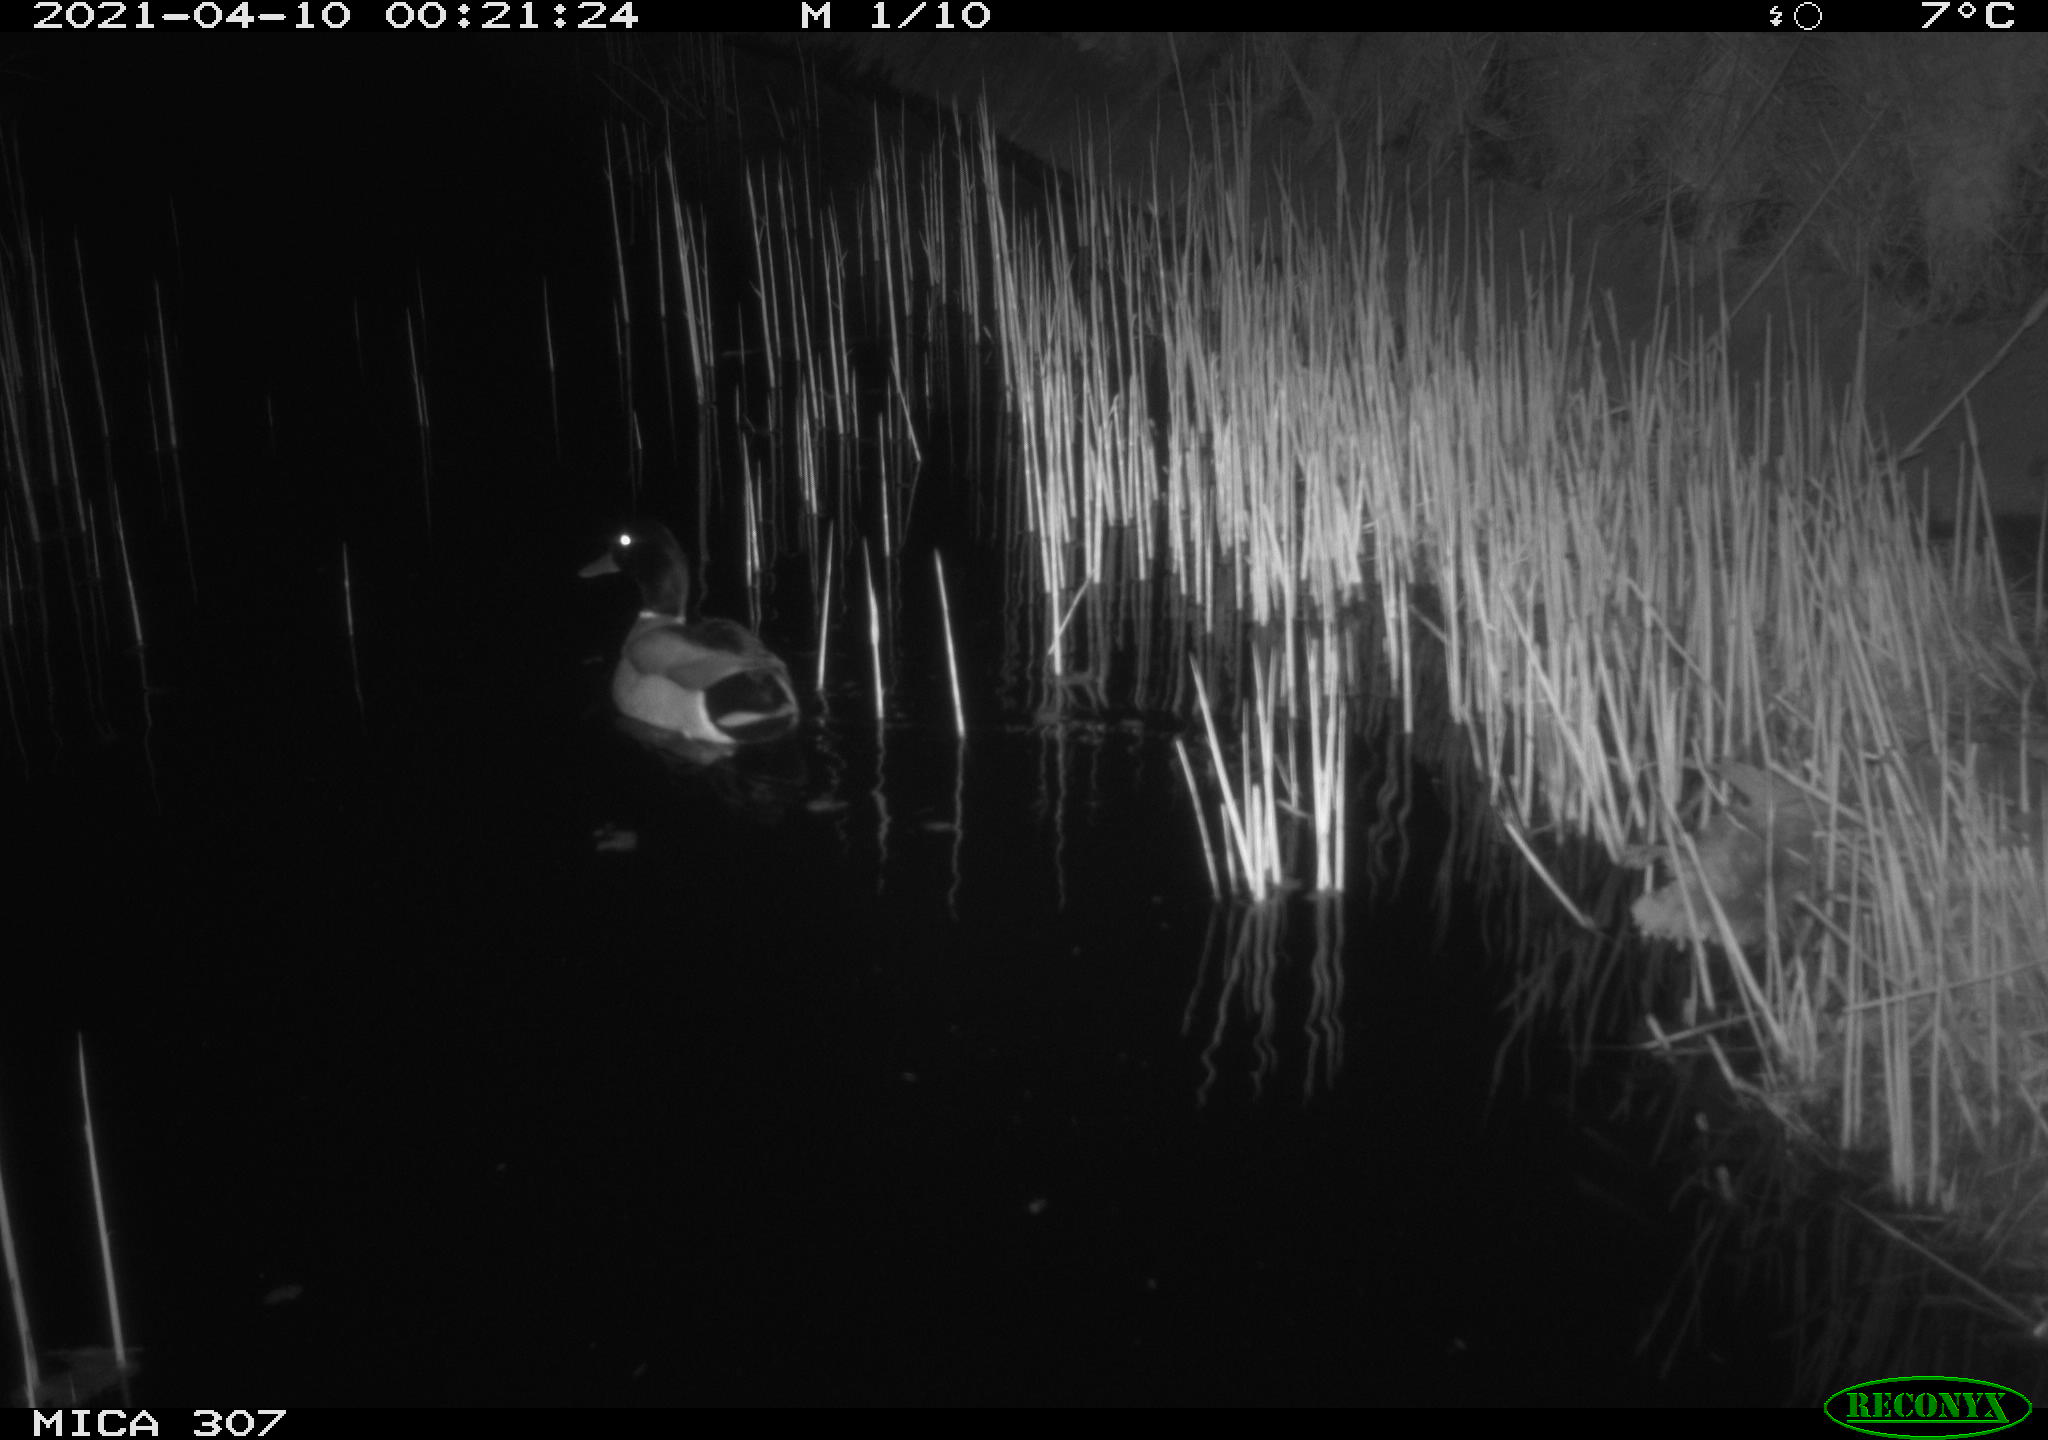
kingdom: Animalia
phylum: Chordata
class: Aves
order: Anseriformes
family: Anatidae
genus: Anas
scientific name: Anas platyrhynchos
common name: Mallard
